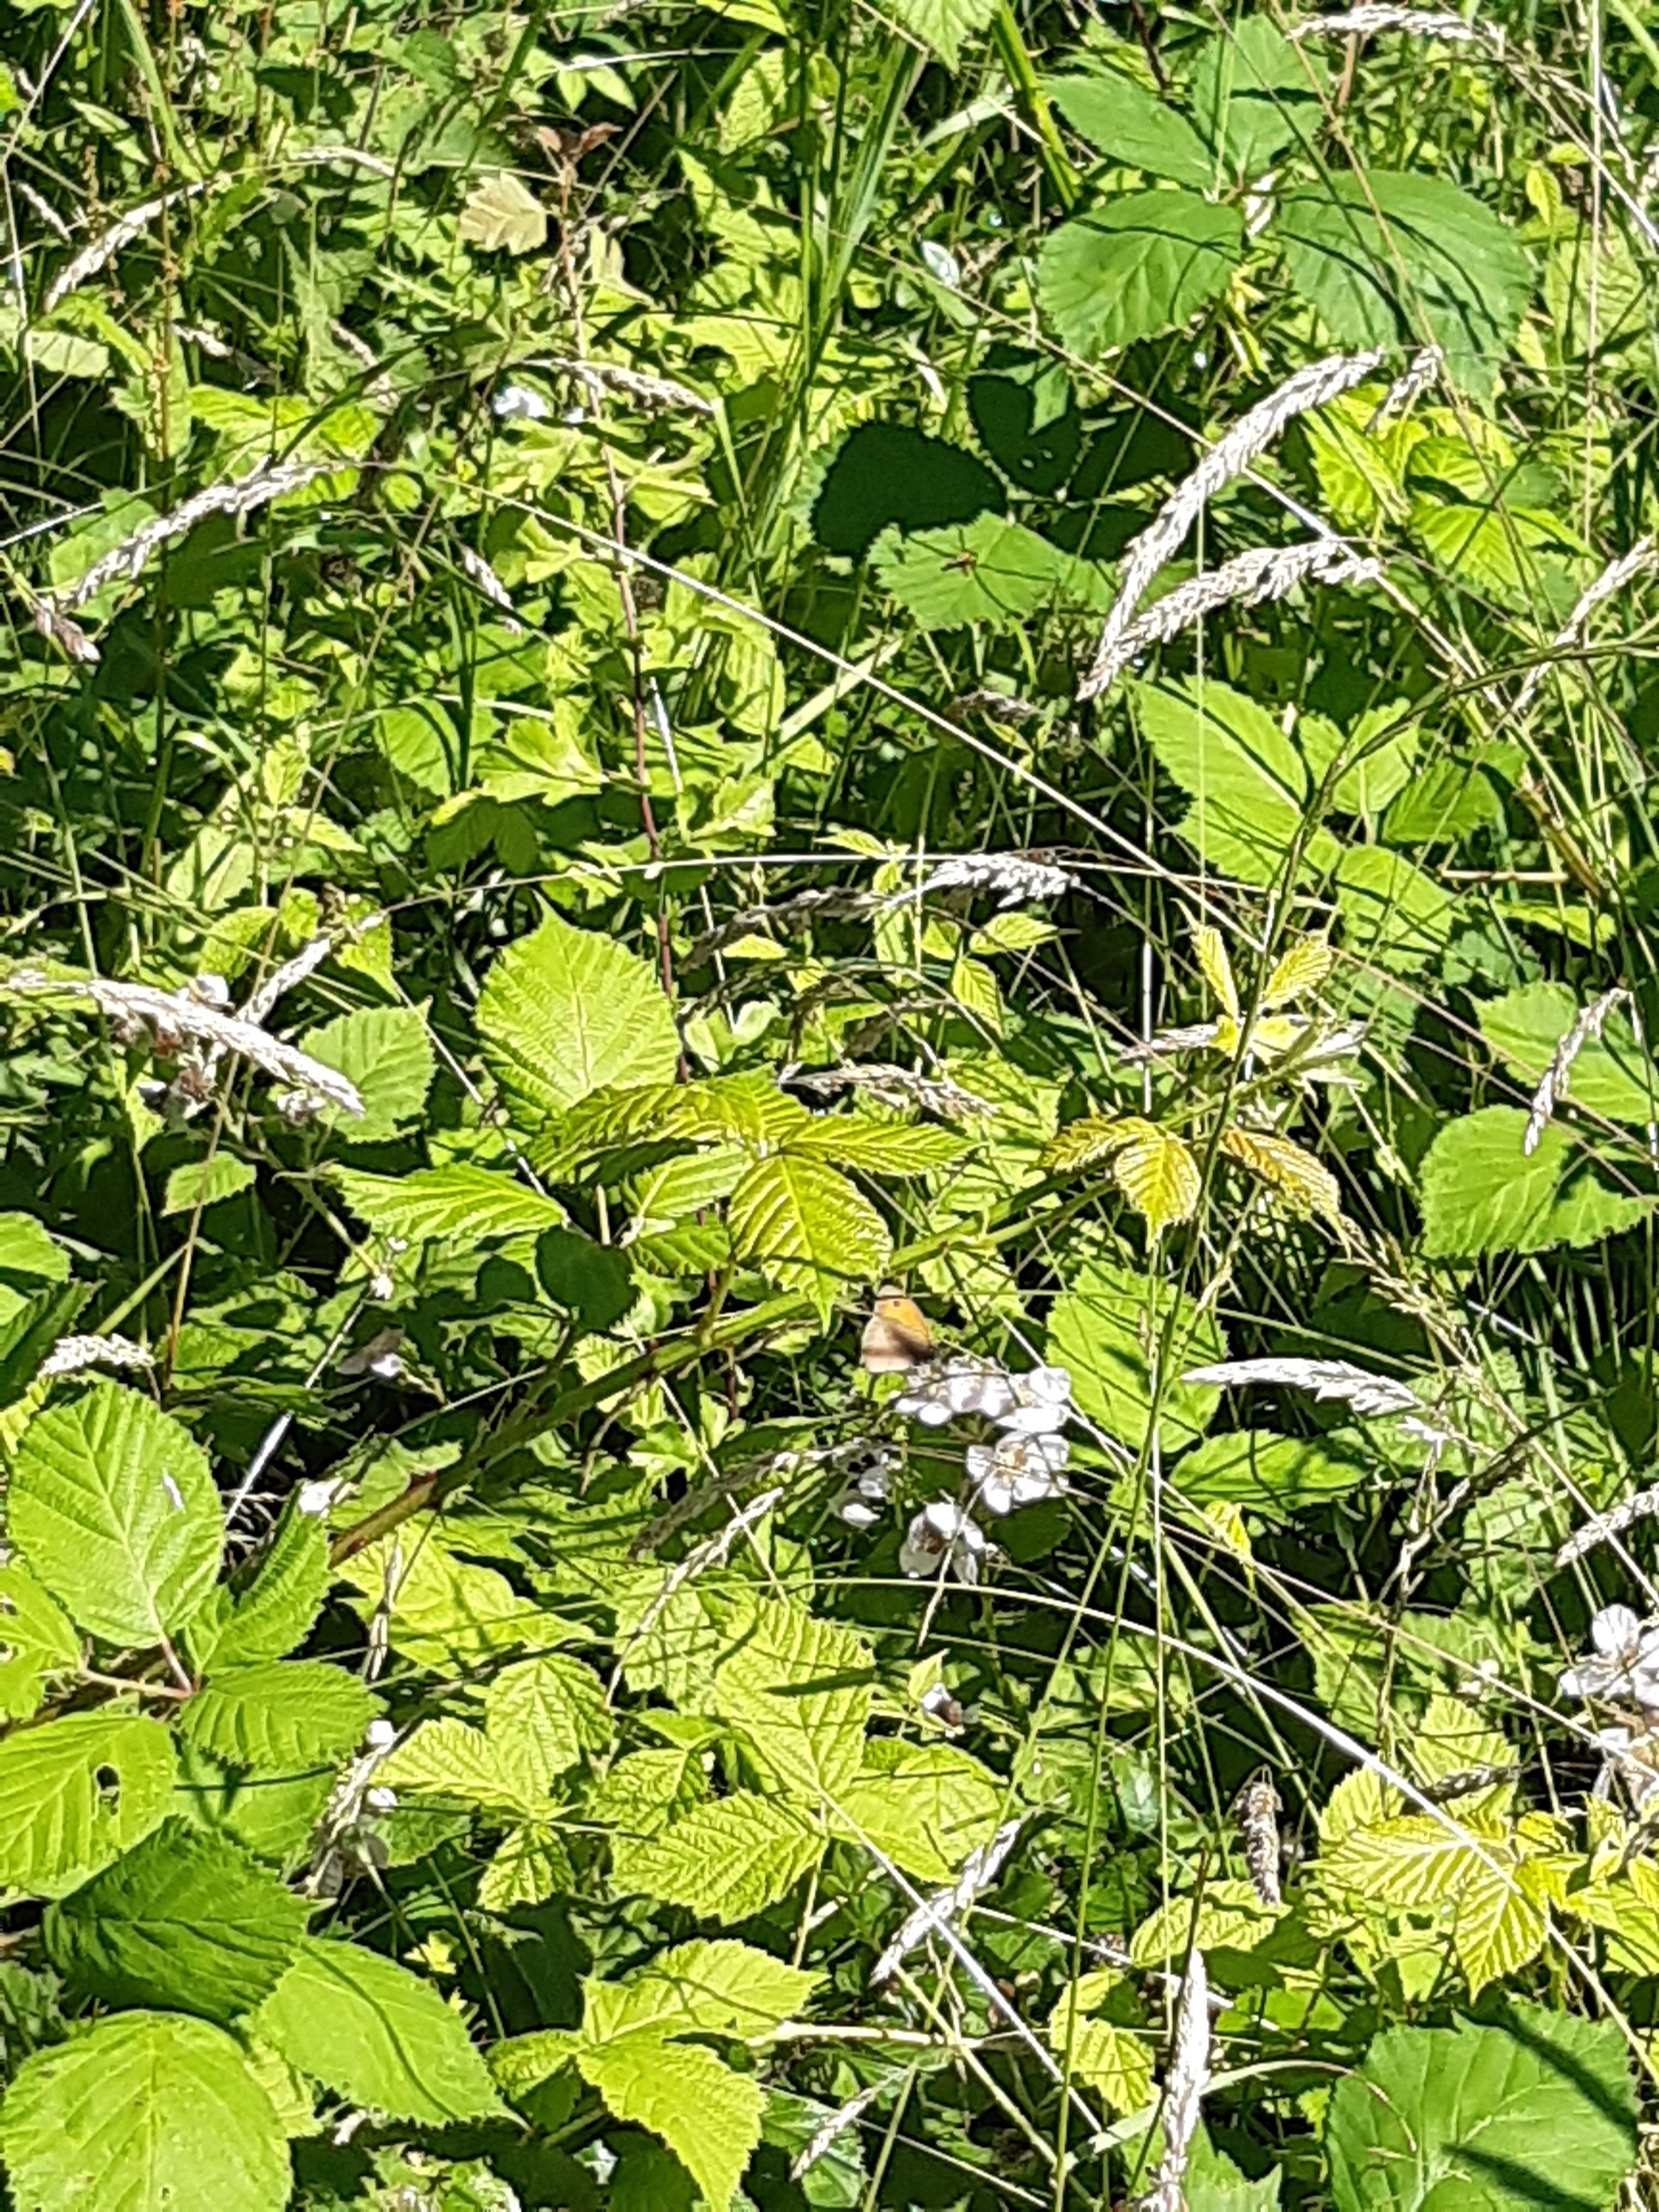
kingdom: Animalia
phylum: Arthropoda
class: Insecta
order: Lepidoptera
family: Nymphalidae
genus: Coenonympha
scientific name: Coenonympha pamphilus
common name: Okkergul randøje
